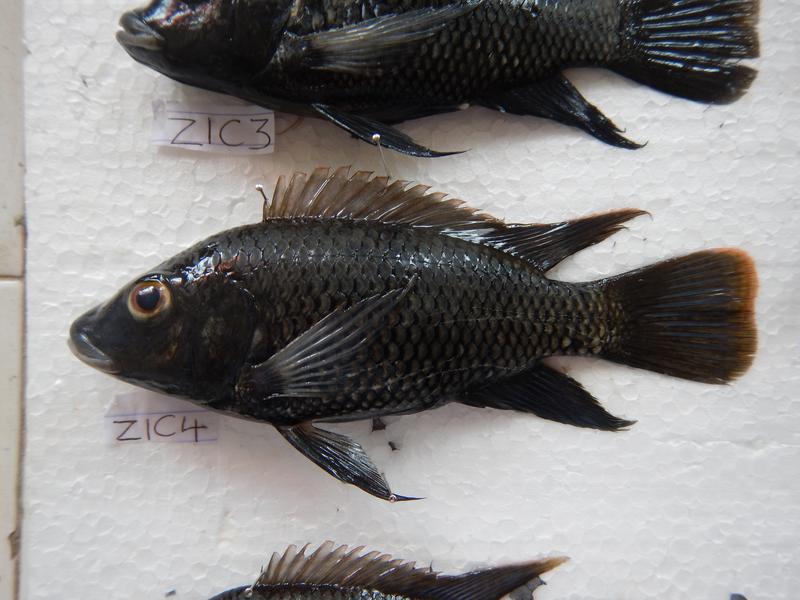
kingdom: Animalia
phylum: Chordata
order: Perciformes
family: Cichlidae
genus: Oreochromis
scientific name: Oreochromis urolepis
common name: Wami tilapia
